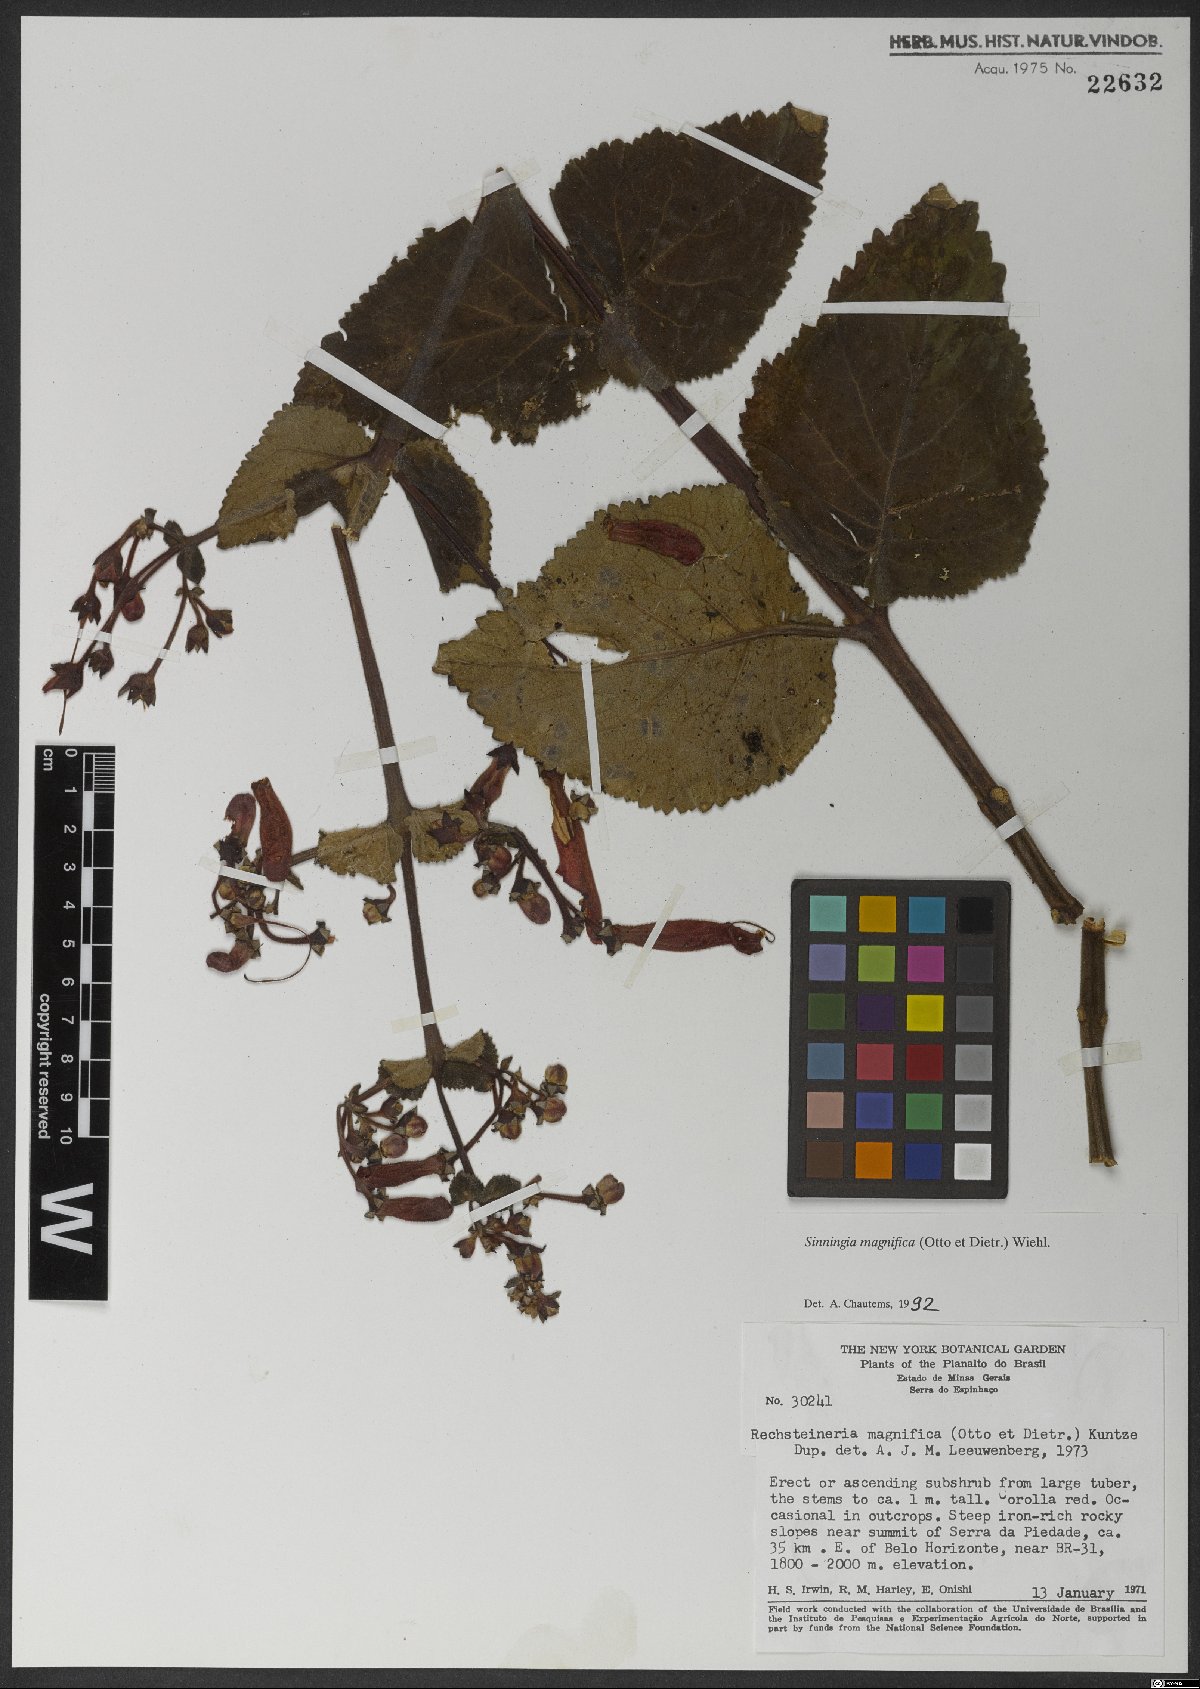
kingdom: Plantae
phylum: Tracheophyta
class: Magnoliopsida
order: Lamiales
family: Gesneriaceae
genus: Sinningia
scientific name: Sinningia magnifica
